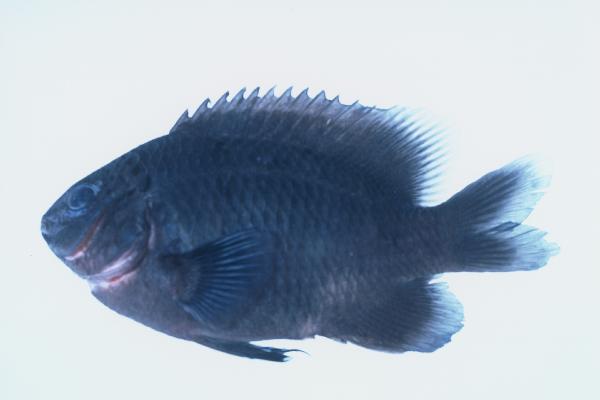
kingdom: Animalia
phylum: Chordata
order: Perciformes
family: Pomacentridae
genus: Stegastes
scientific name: Stegastes limbatus
